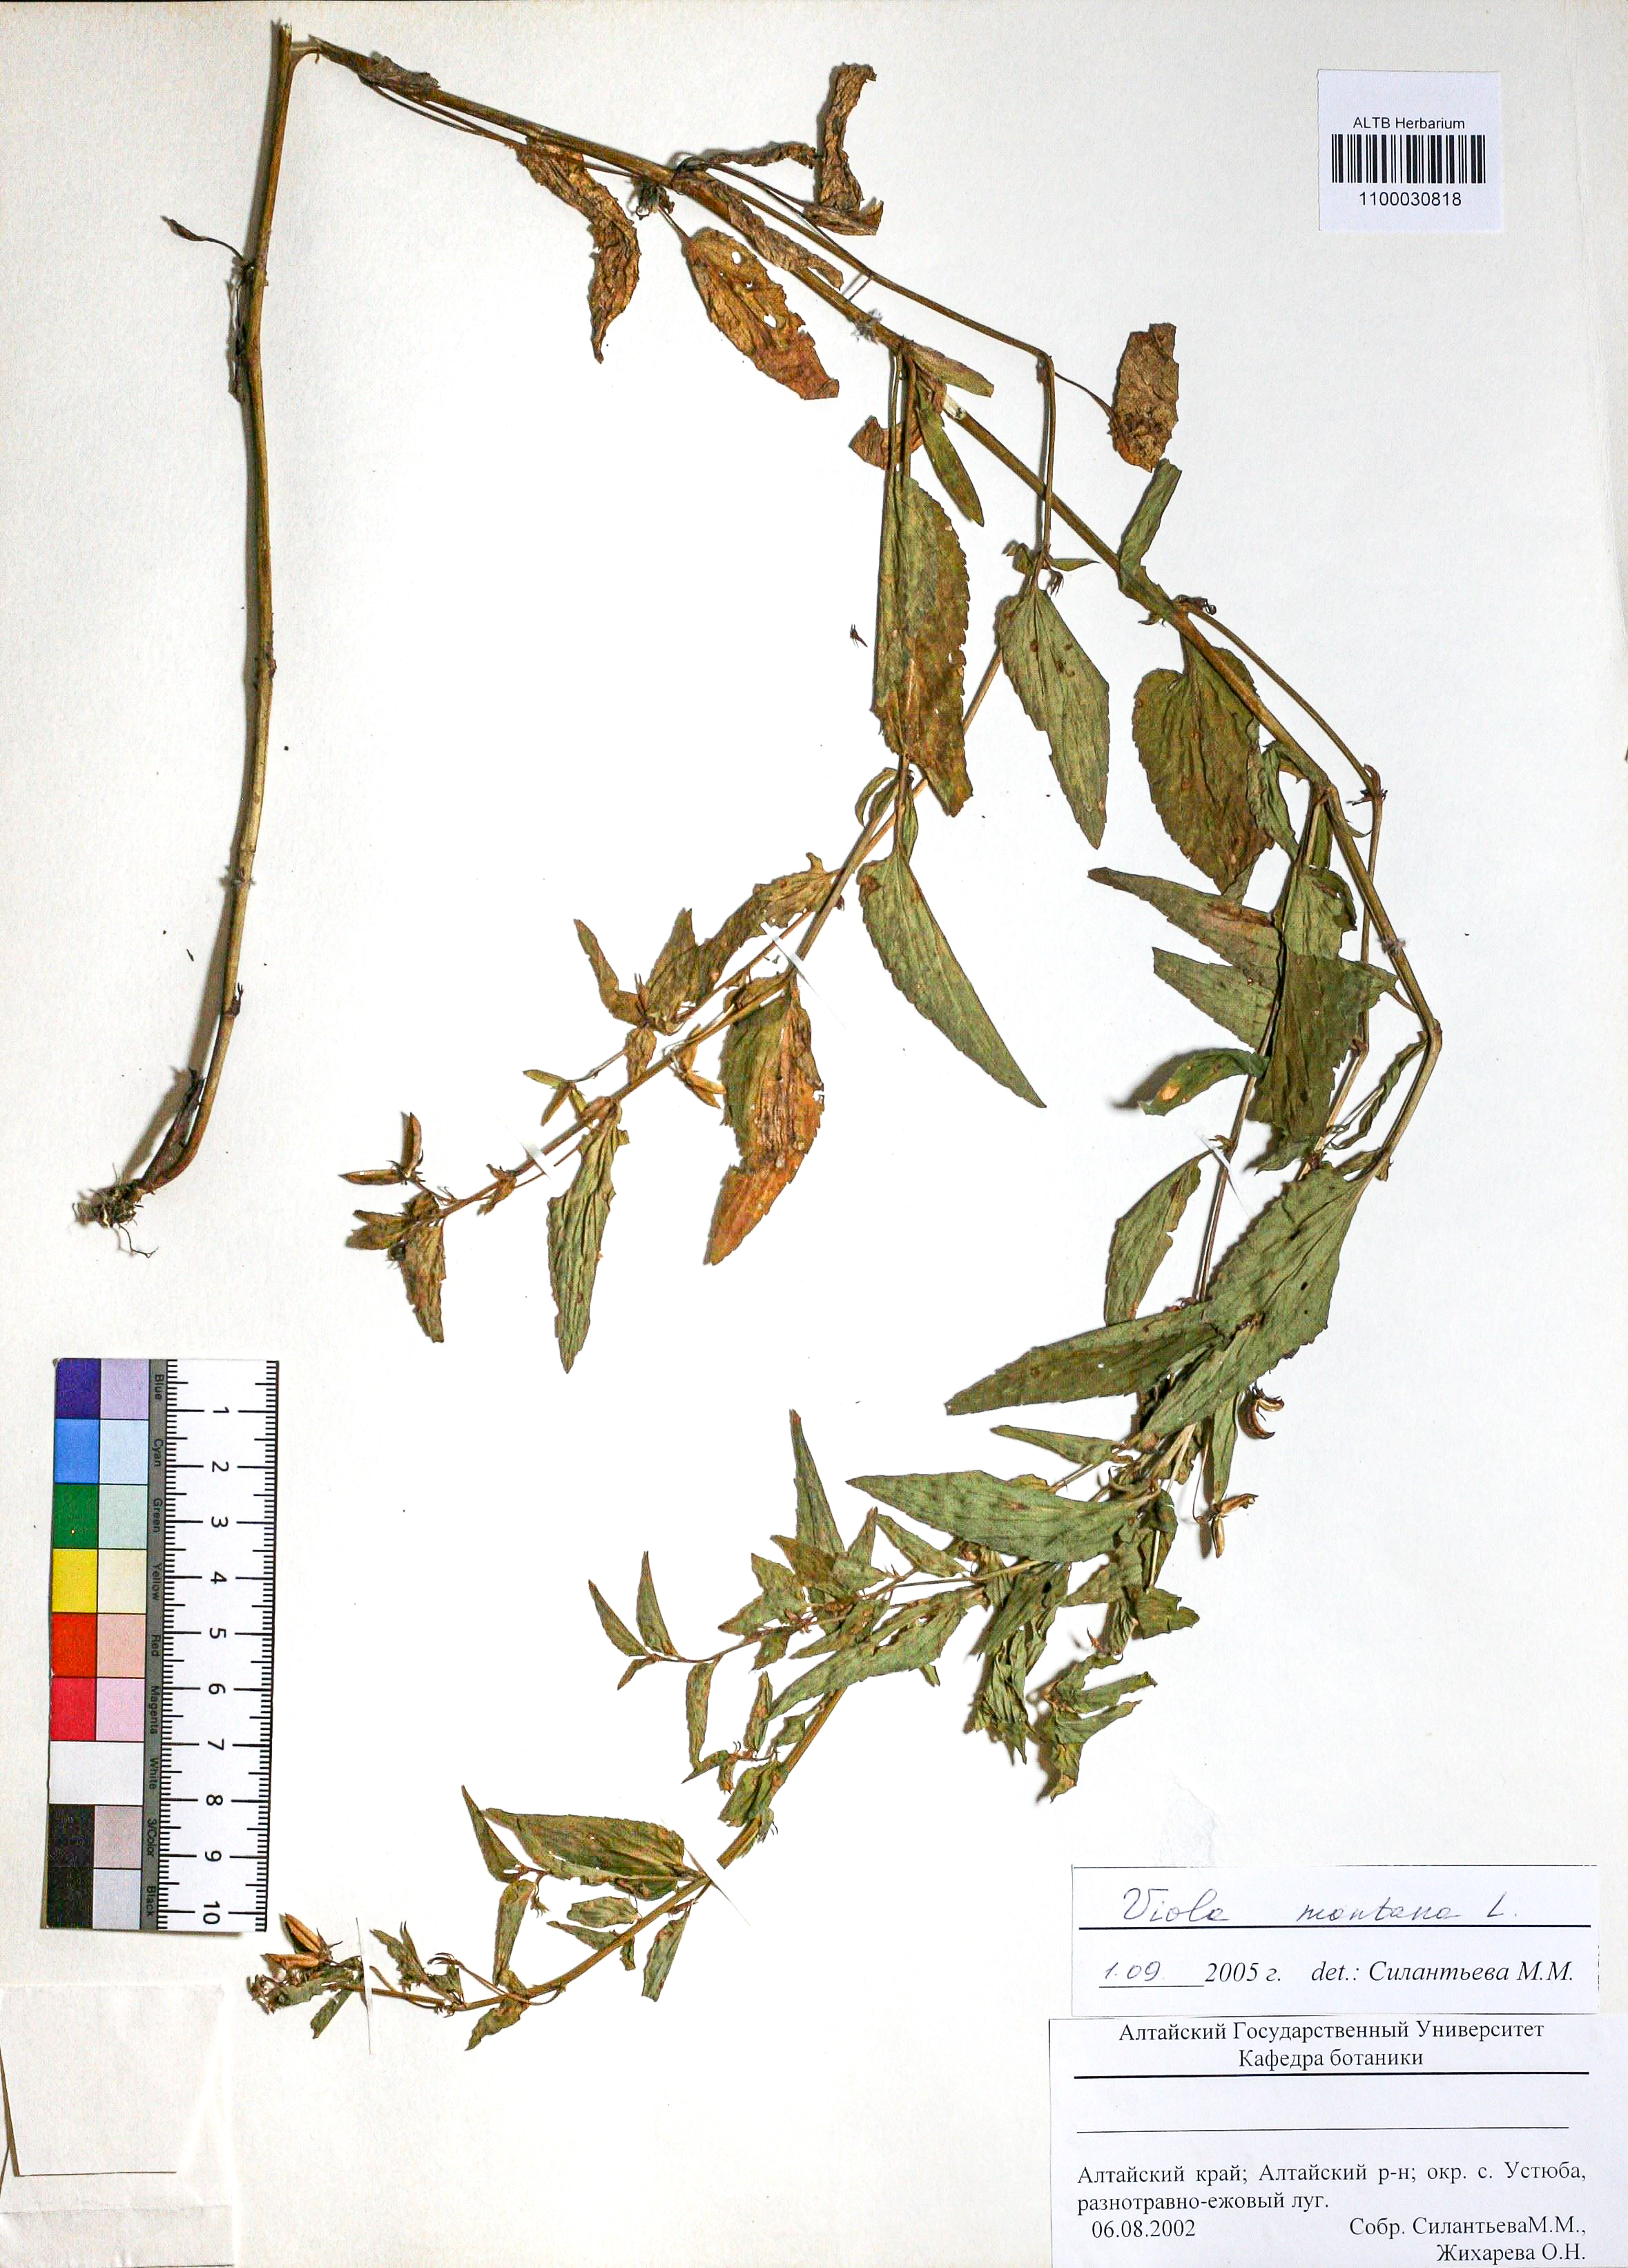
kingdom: Plantae
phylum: Tracheophyta
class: Magnoliopsida
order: Malpighiales
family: Violaceae
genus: Viola
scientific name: Viola ruppii
